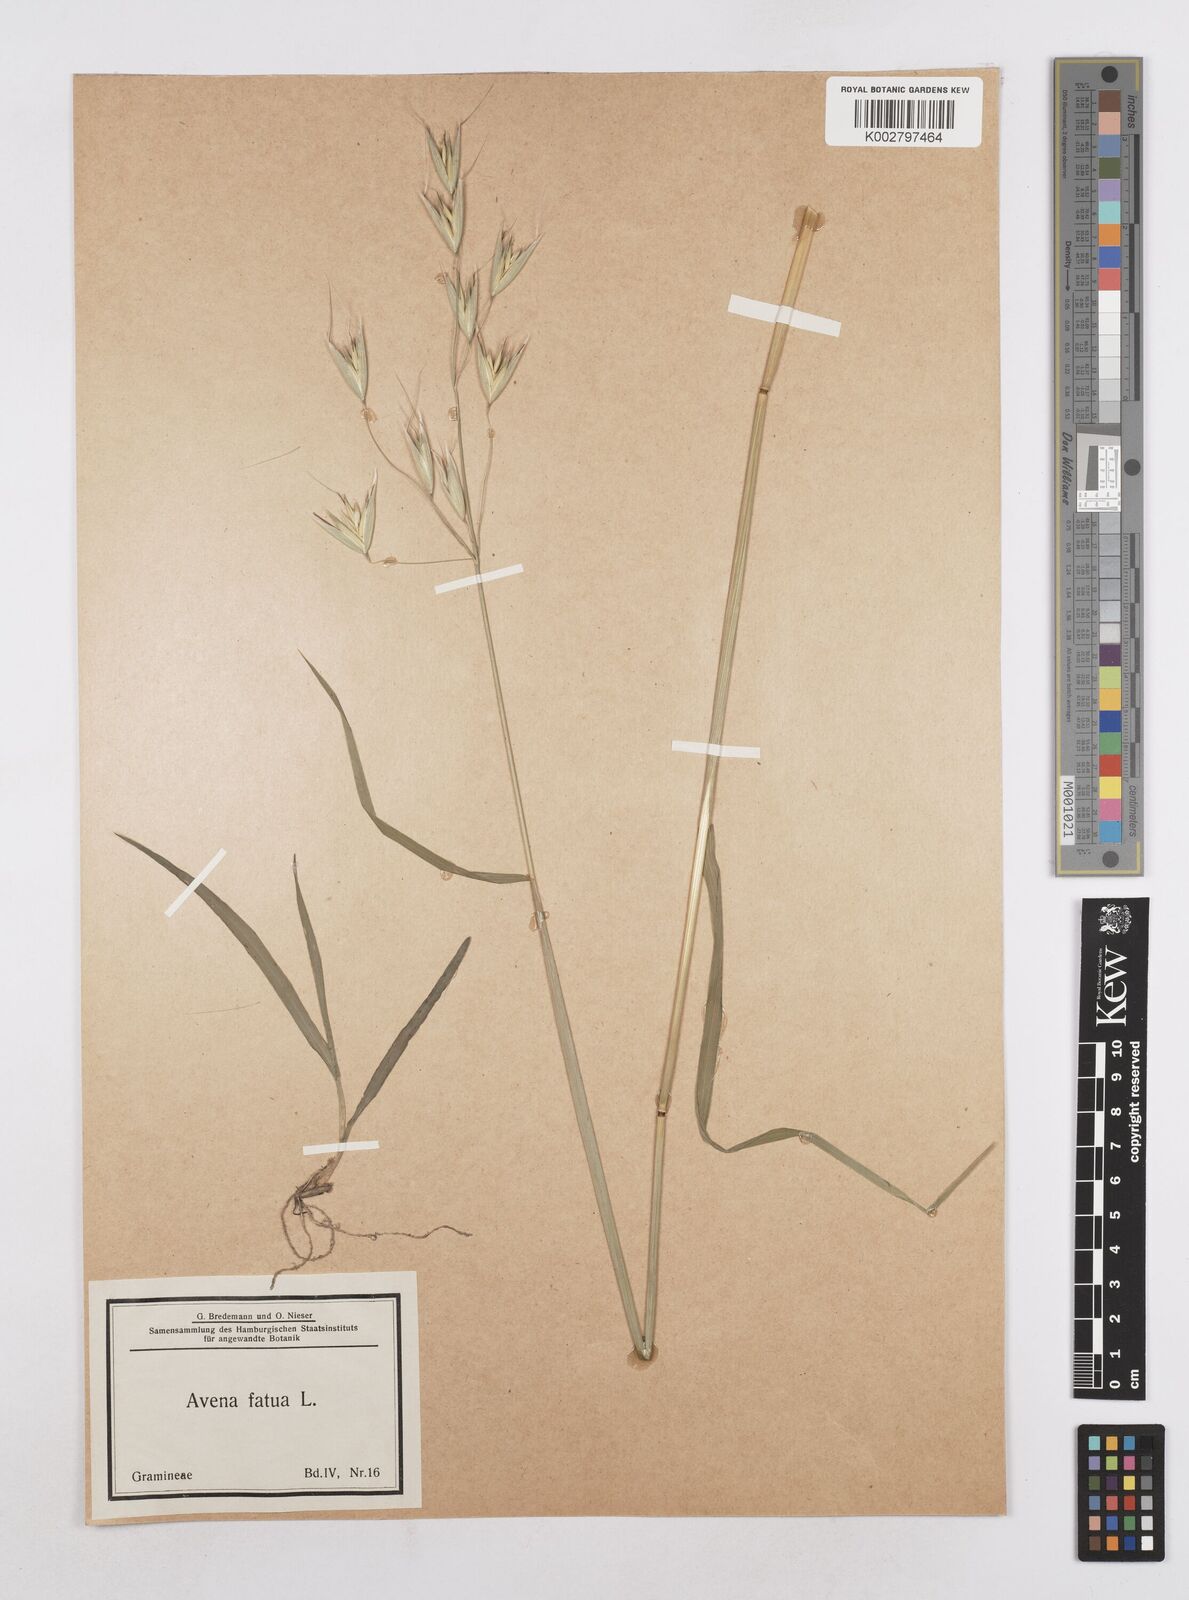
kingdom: Plantae
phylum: Tracheophyta
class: Liliopsida
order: Poales
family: Poaceae
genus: Avena
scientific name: Avena fatua
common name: Wild oat
